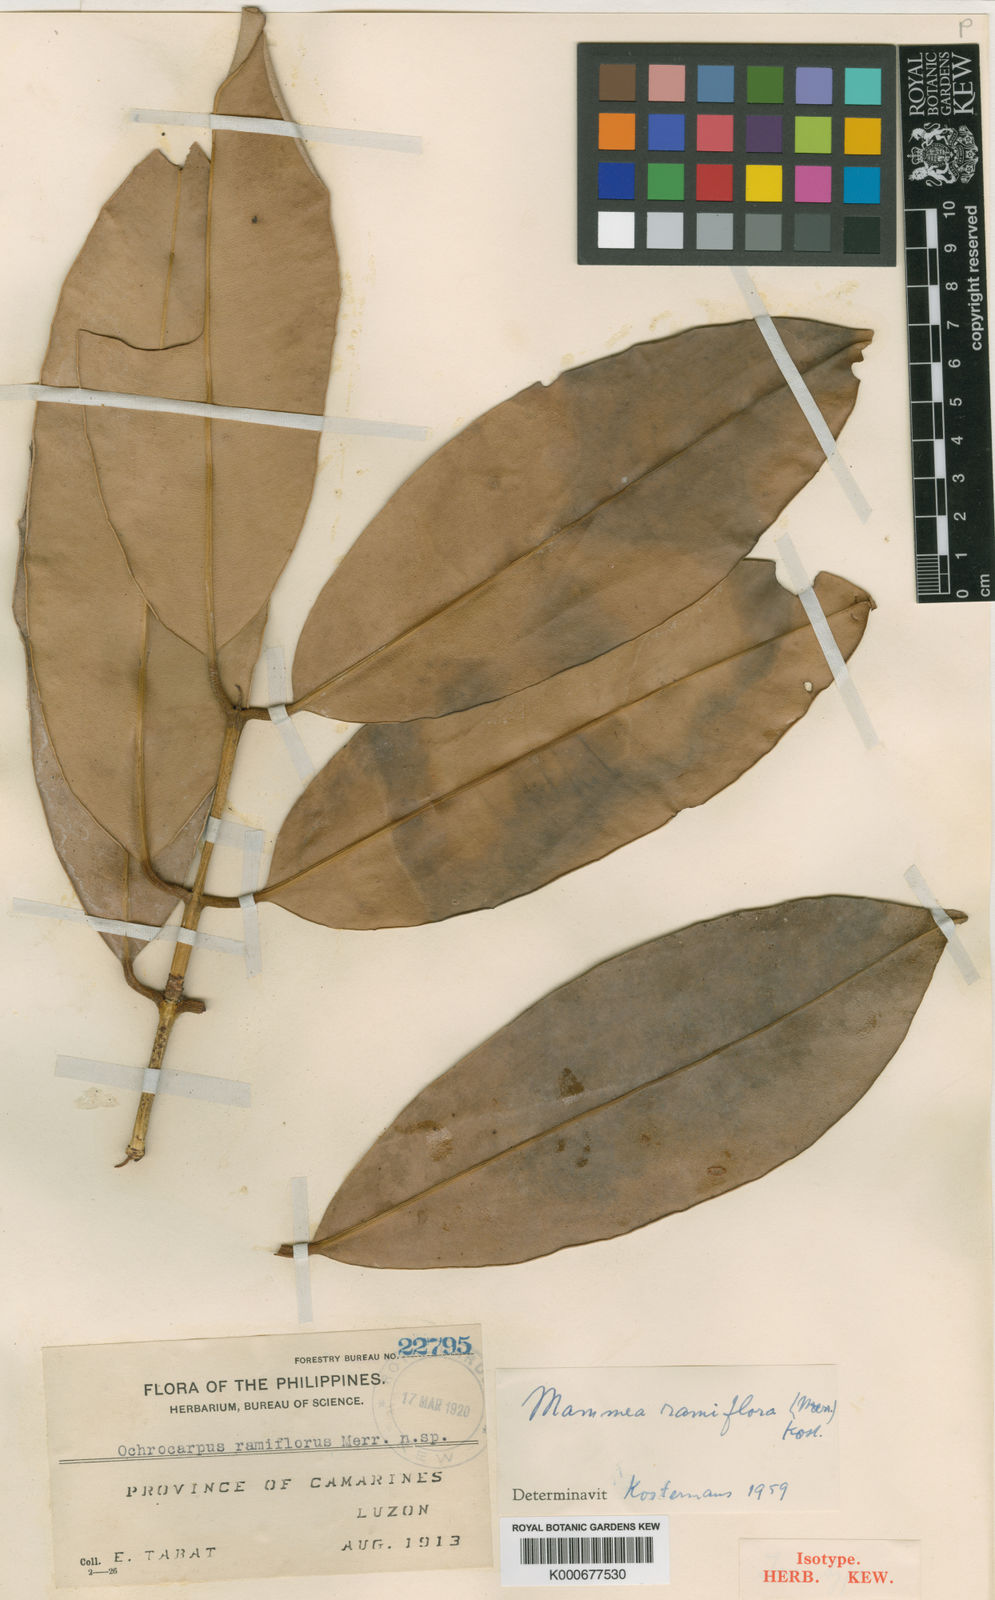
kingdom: Plantae
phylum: Tracheophyta
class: Magnoliopsida
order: Malpighiales
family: Calophyllaceae
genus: Mammea
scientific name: Mammea ramiflora
